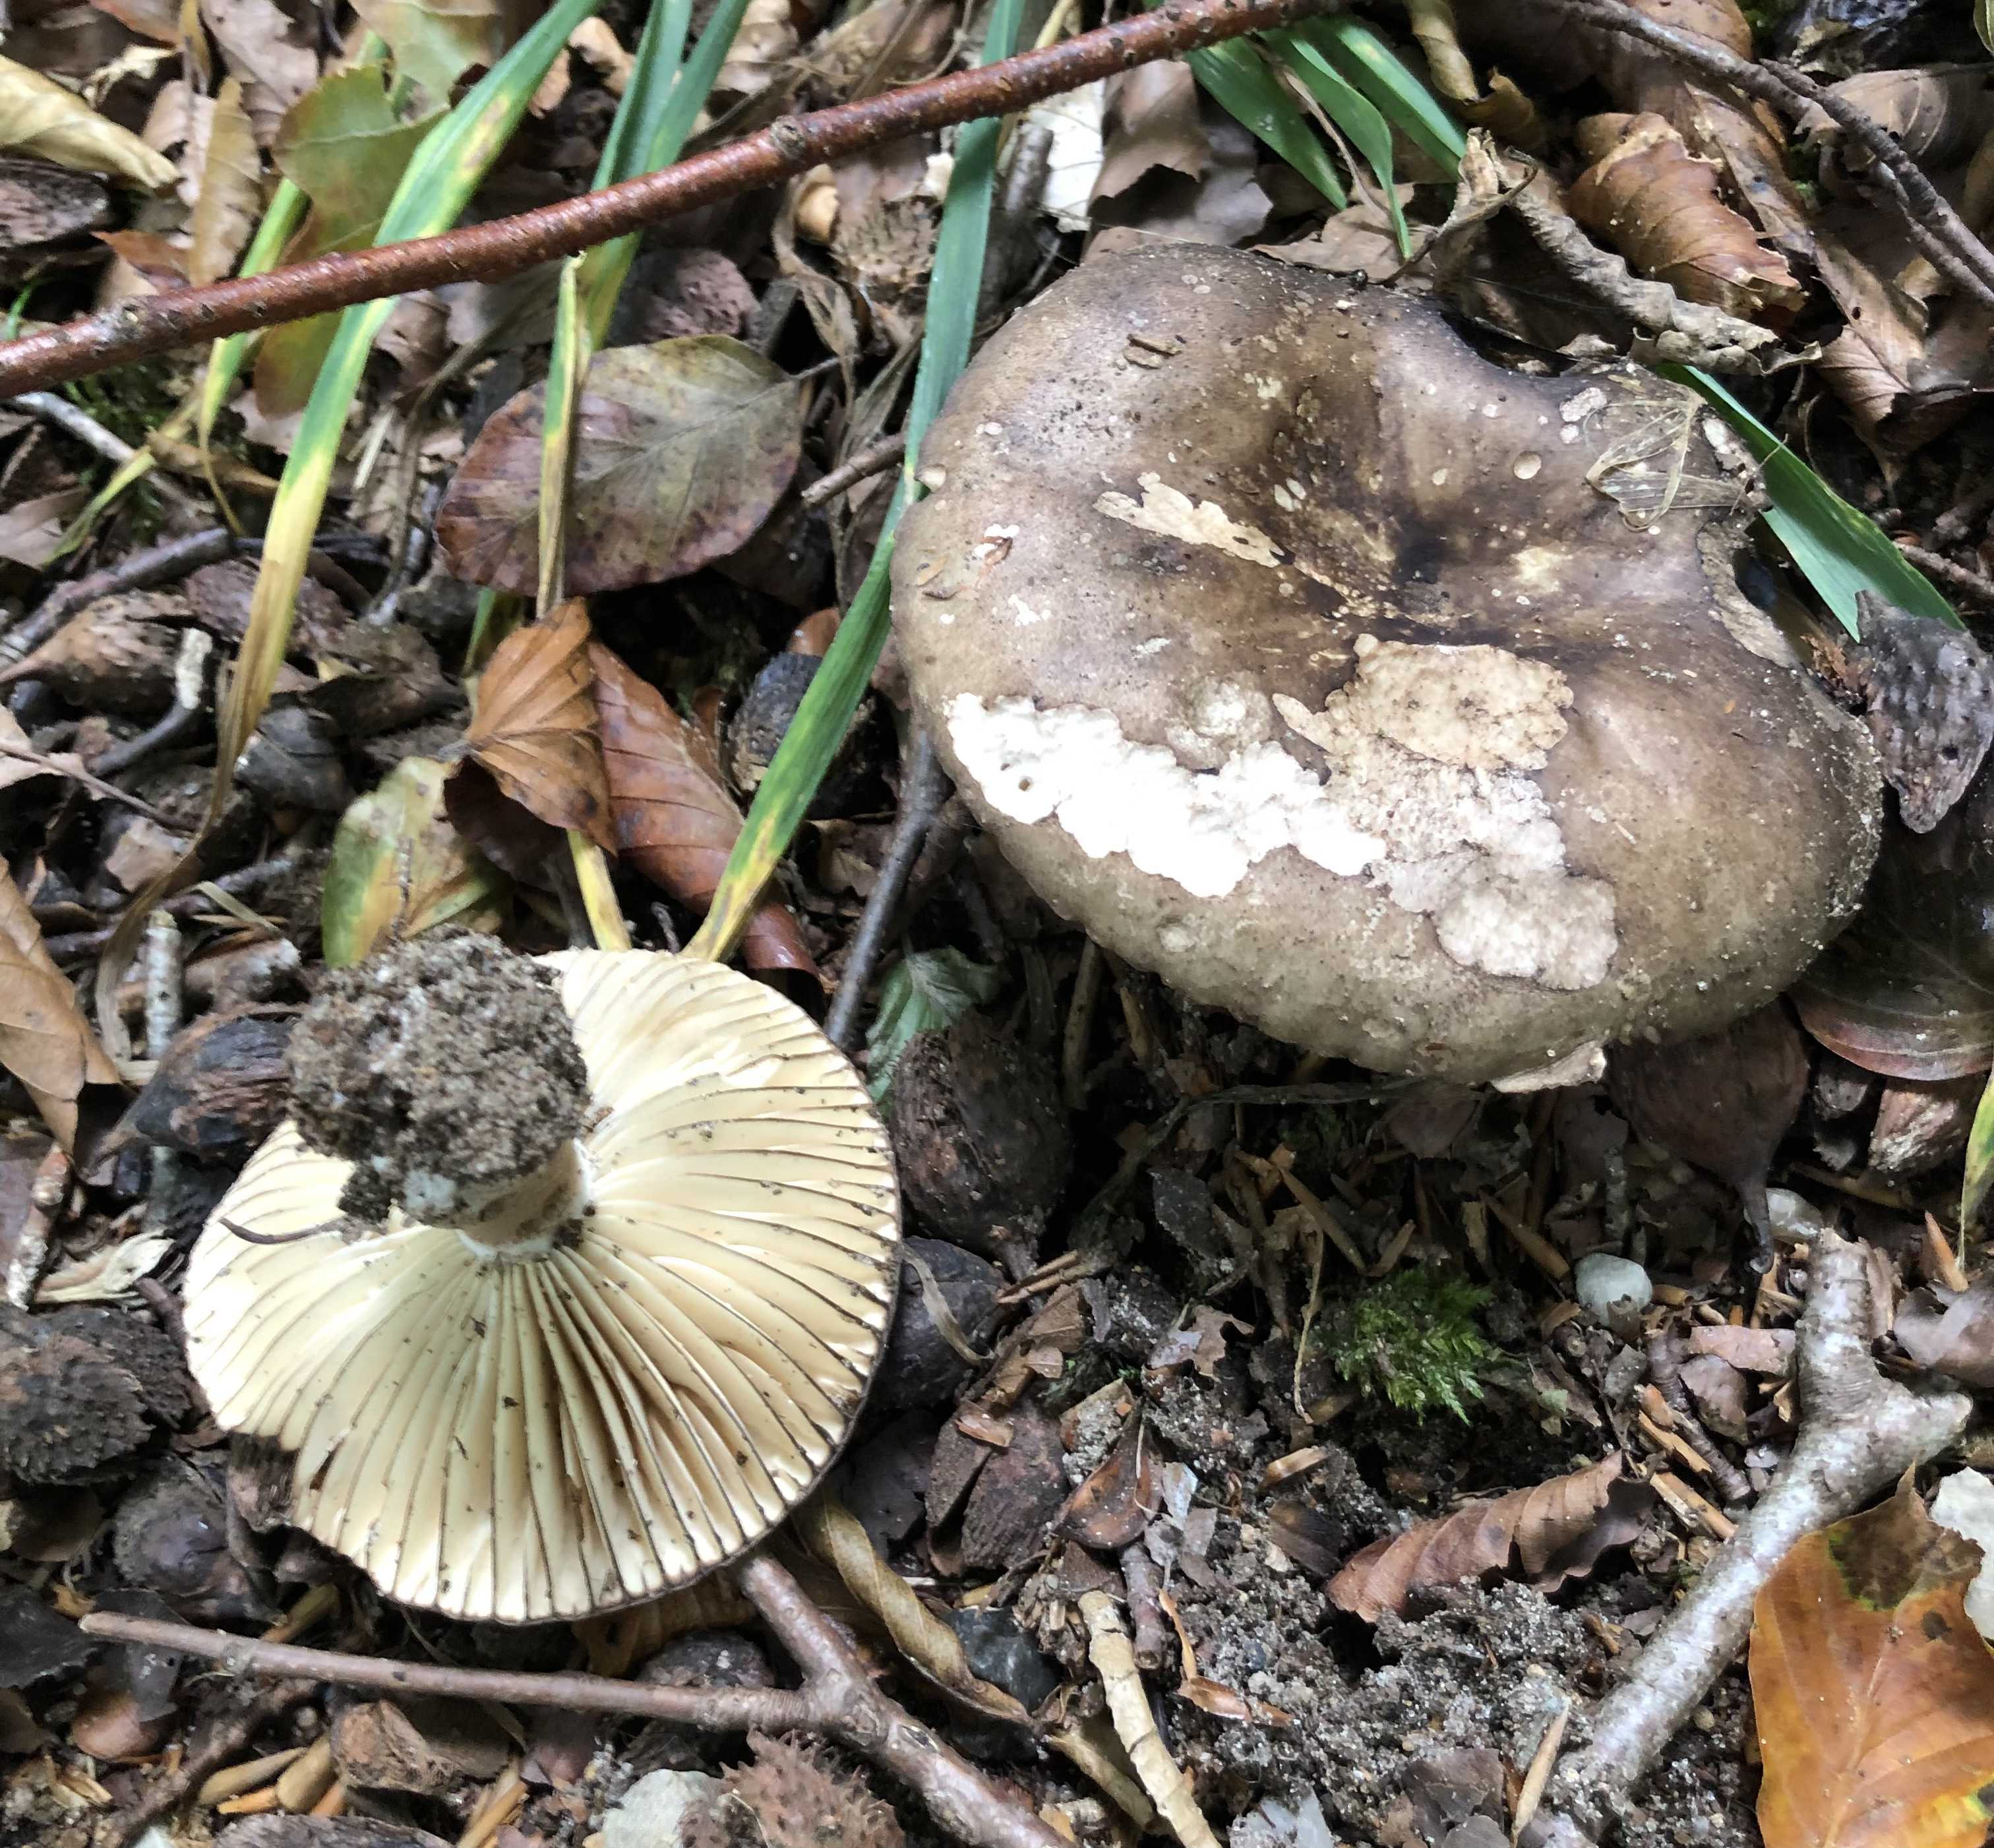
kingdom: Fungi
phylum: Basidiomycota
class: Agaricomycetes
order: Russulales
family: Russulaceae
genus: Russula
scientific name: Russula adusta
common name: sværtende skørhat
